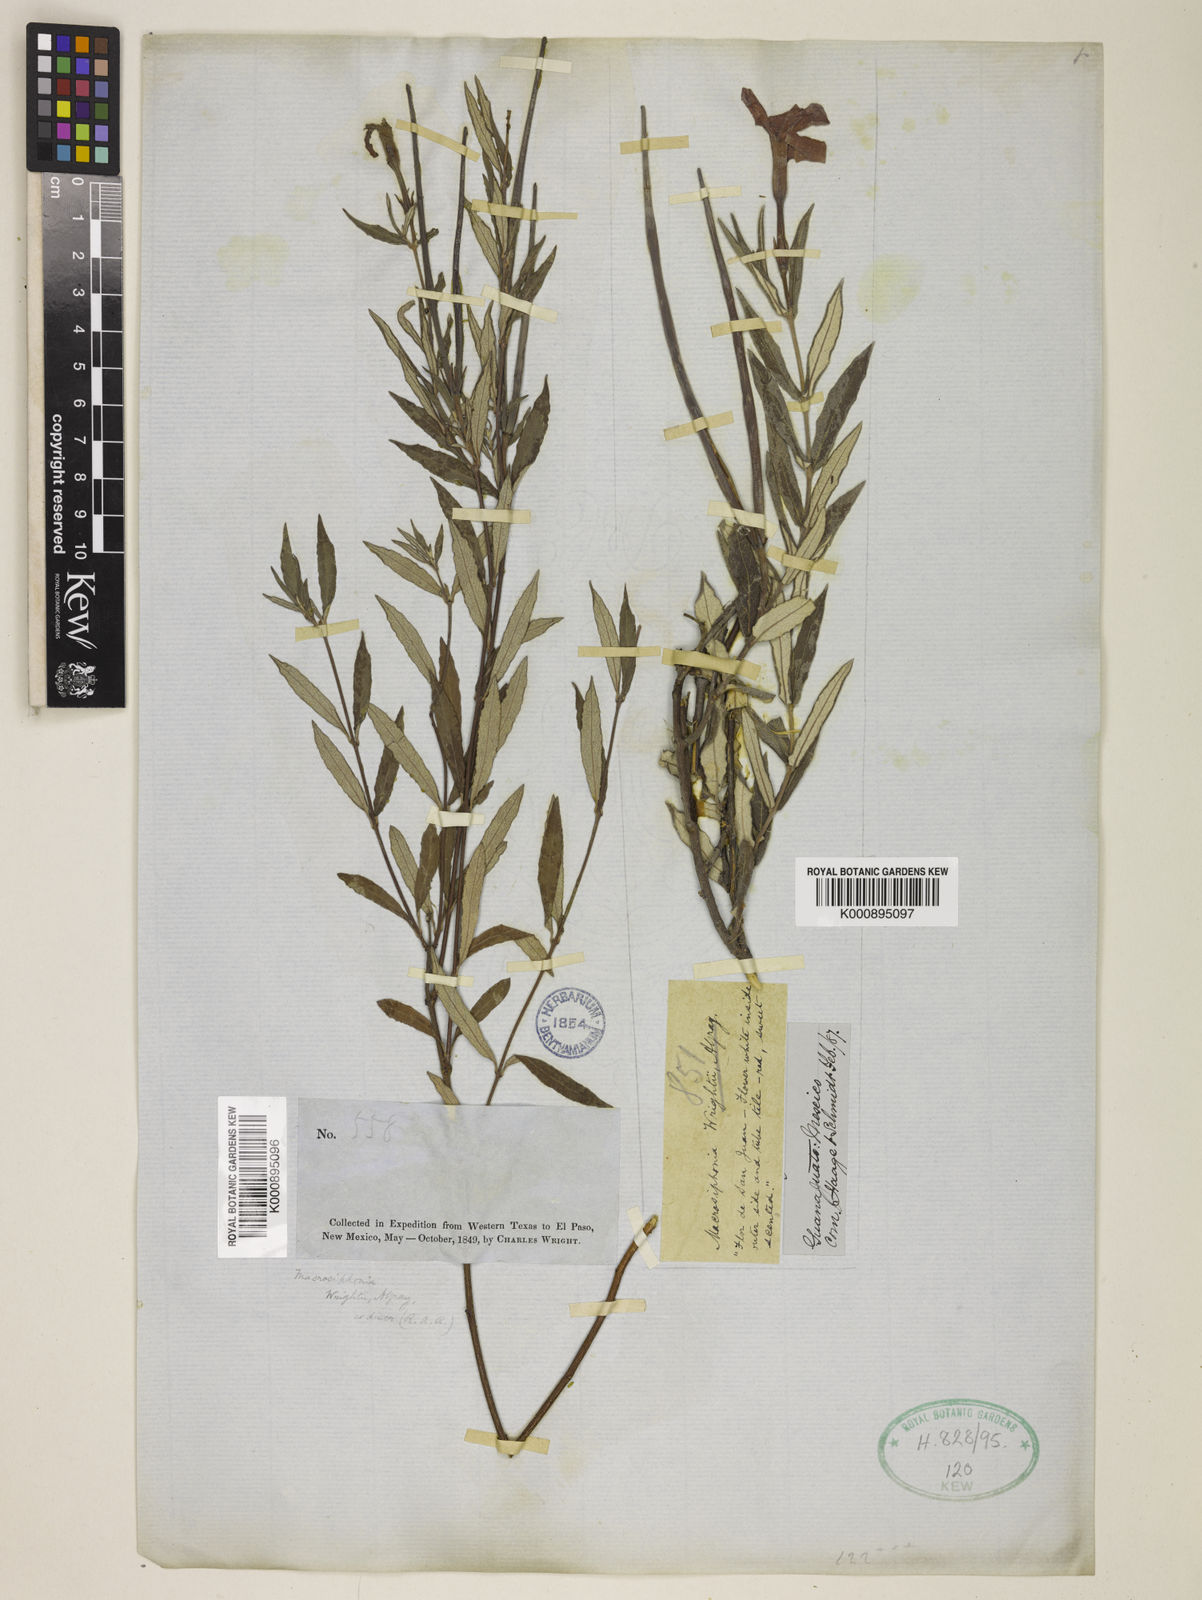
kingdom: Plantae
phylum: Tracheophyta
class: Magnoliopsida
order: Gentianales
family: Apocynaceae
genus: Mandevilla
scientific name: Mandevilla hypoleuca
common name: Davis mountain rocktrumpet
